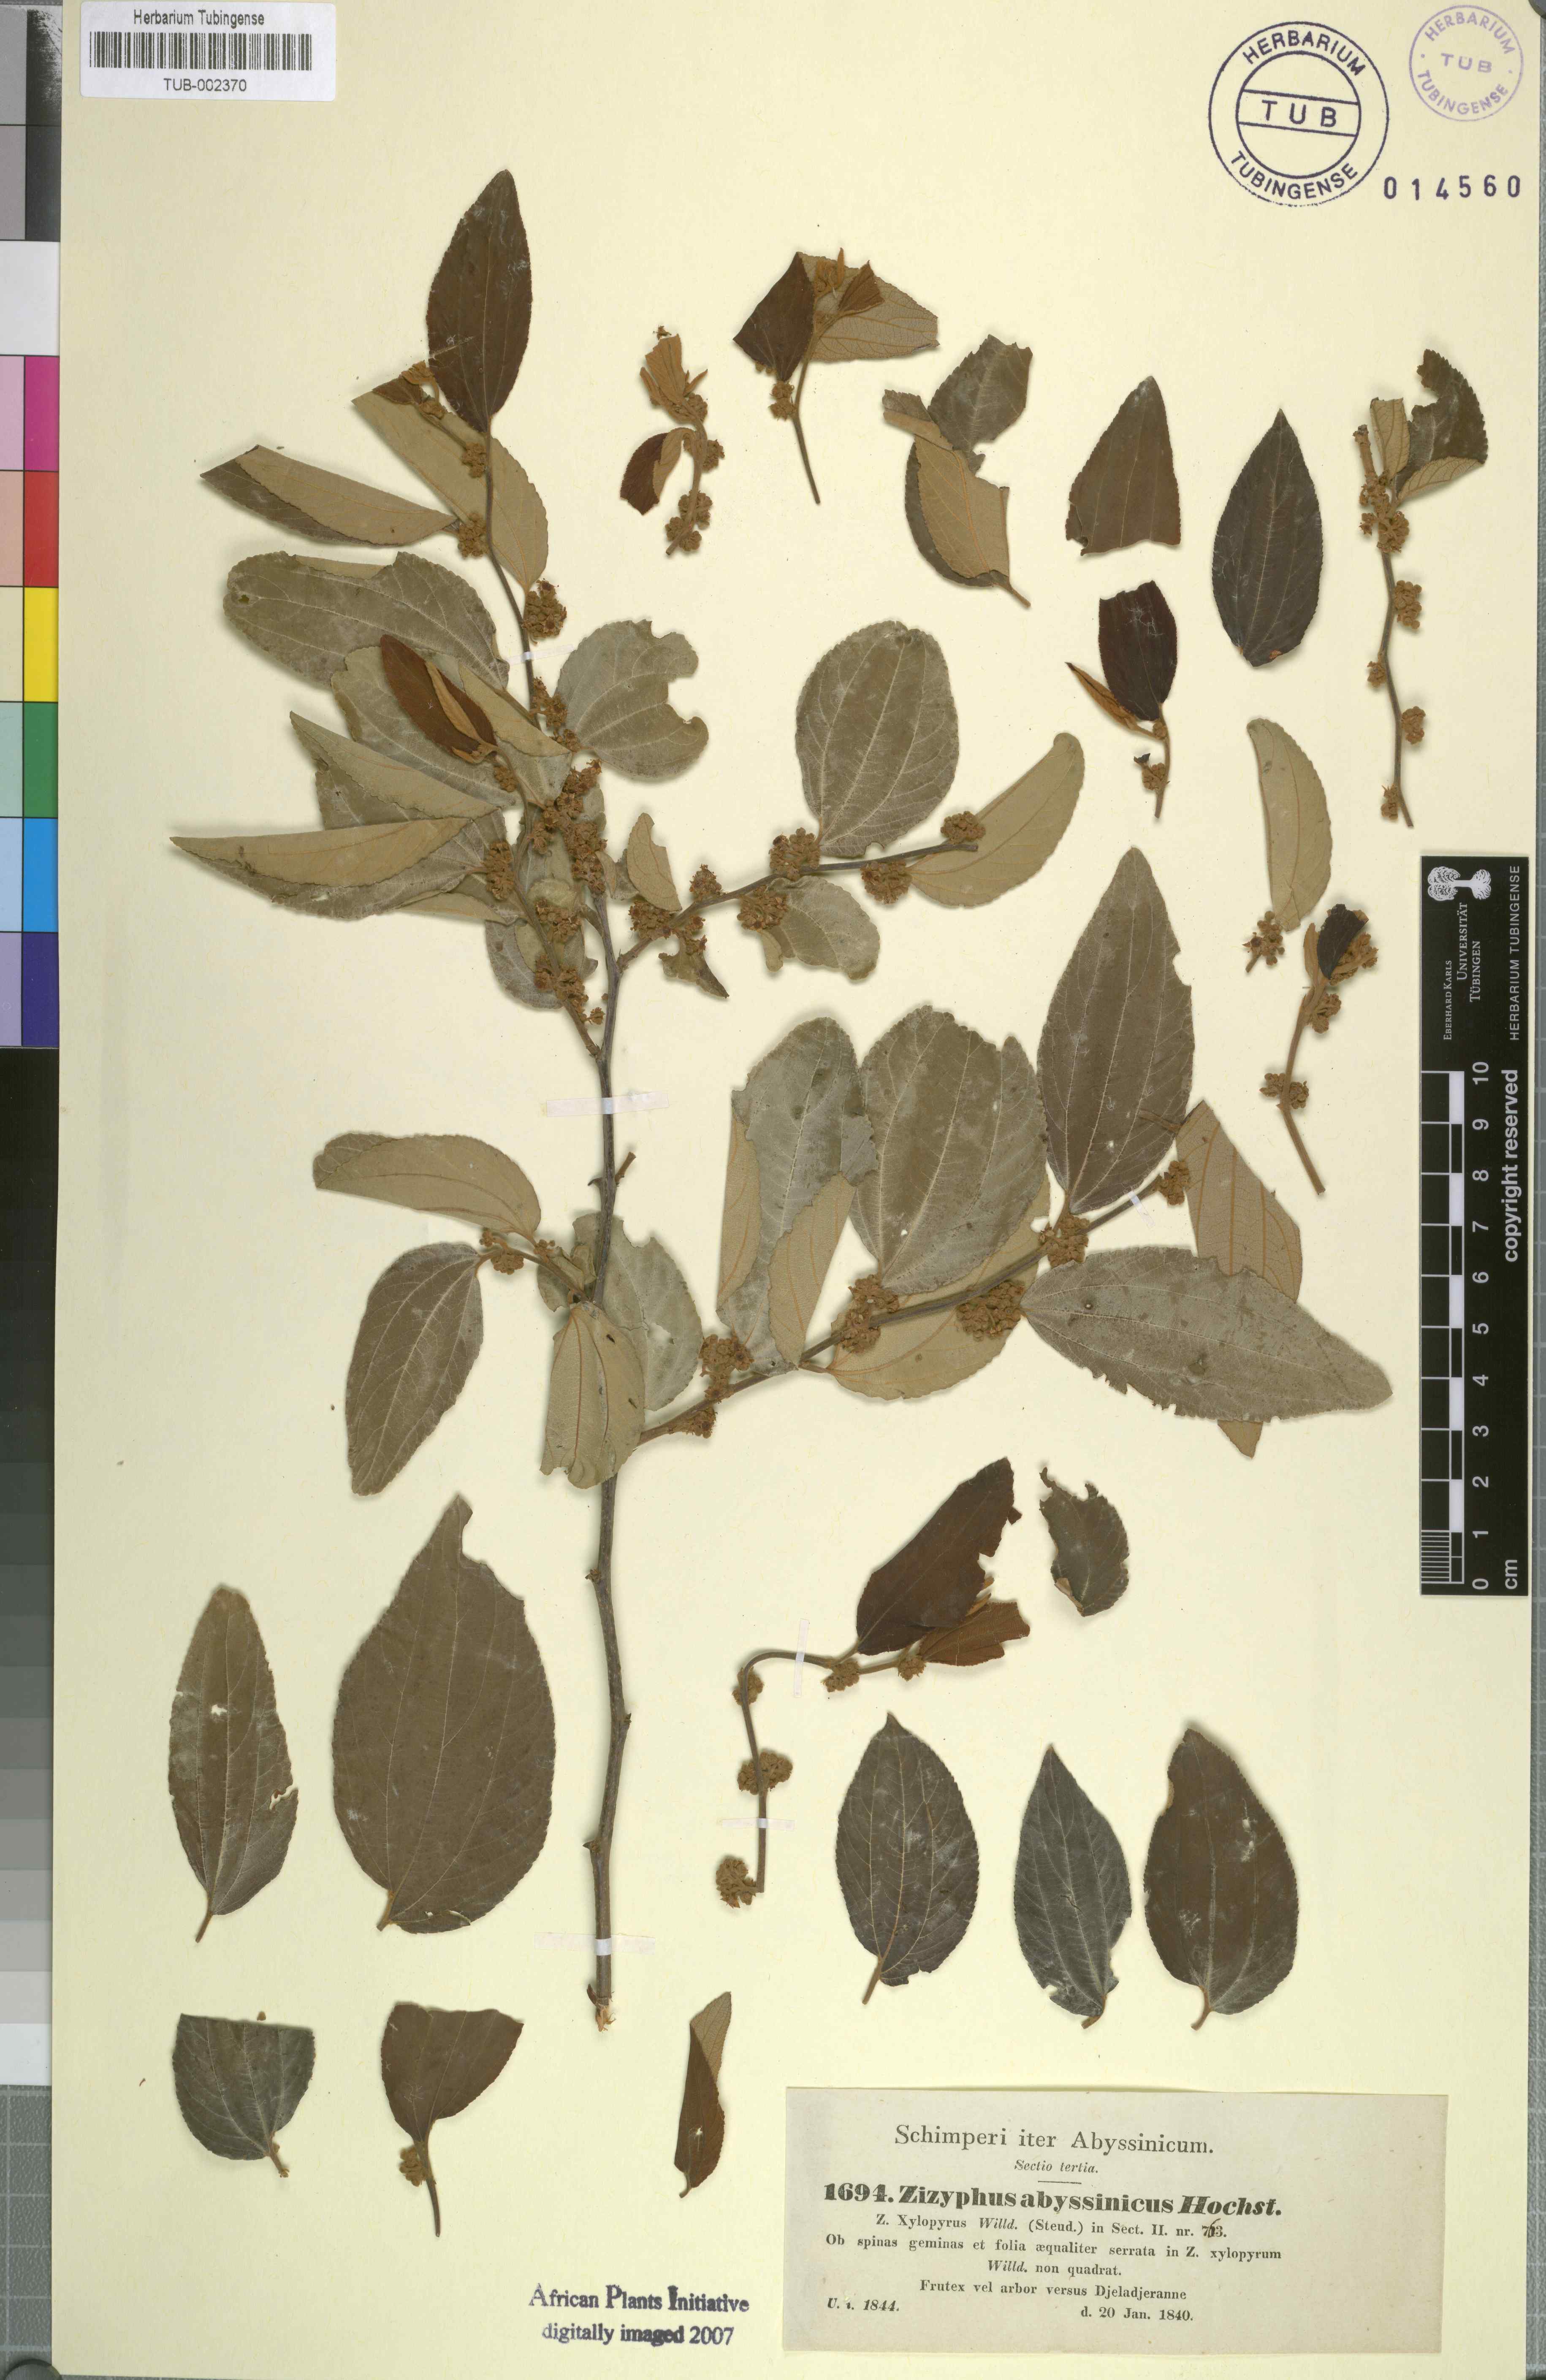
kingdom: Plantae
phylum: Tracheophyta
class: Magnoliopsida
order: Rosales
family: Rhamnaceae
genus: Ziziphus
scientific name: Ziziphus jujuba
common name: Jujube red date
